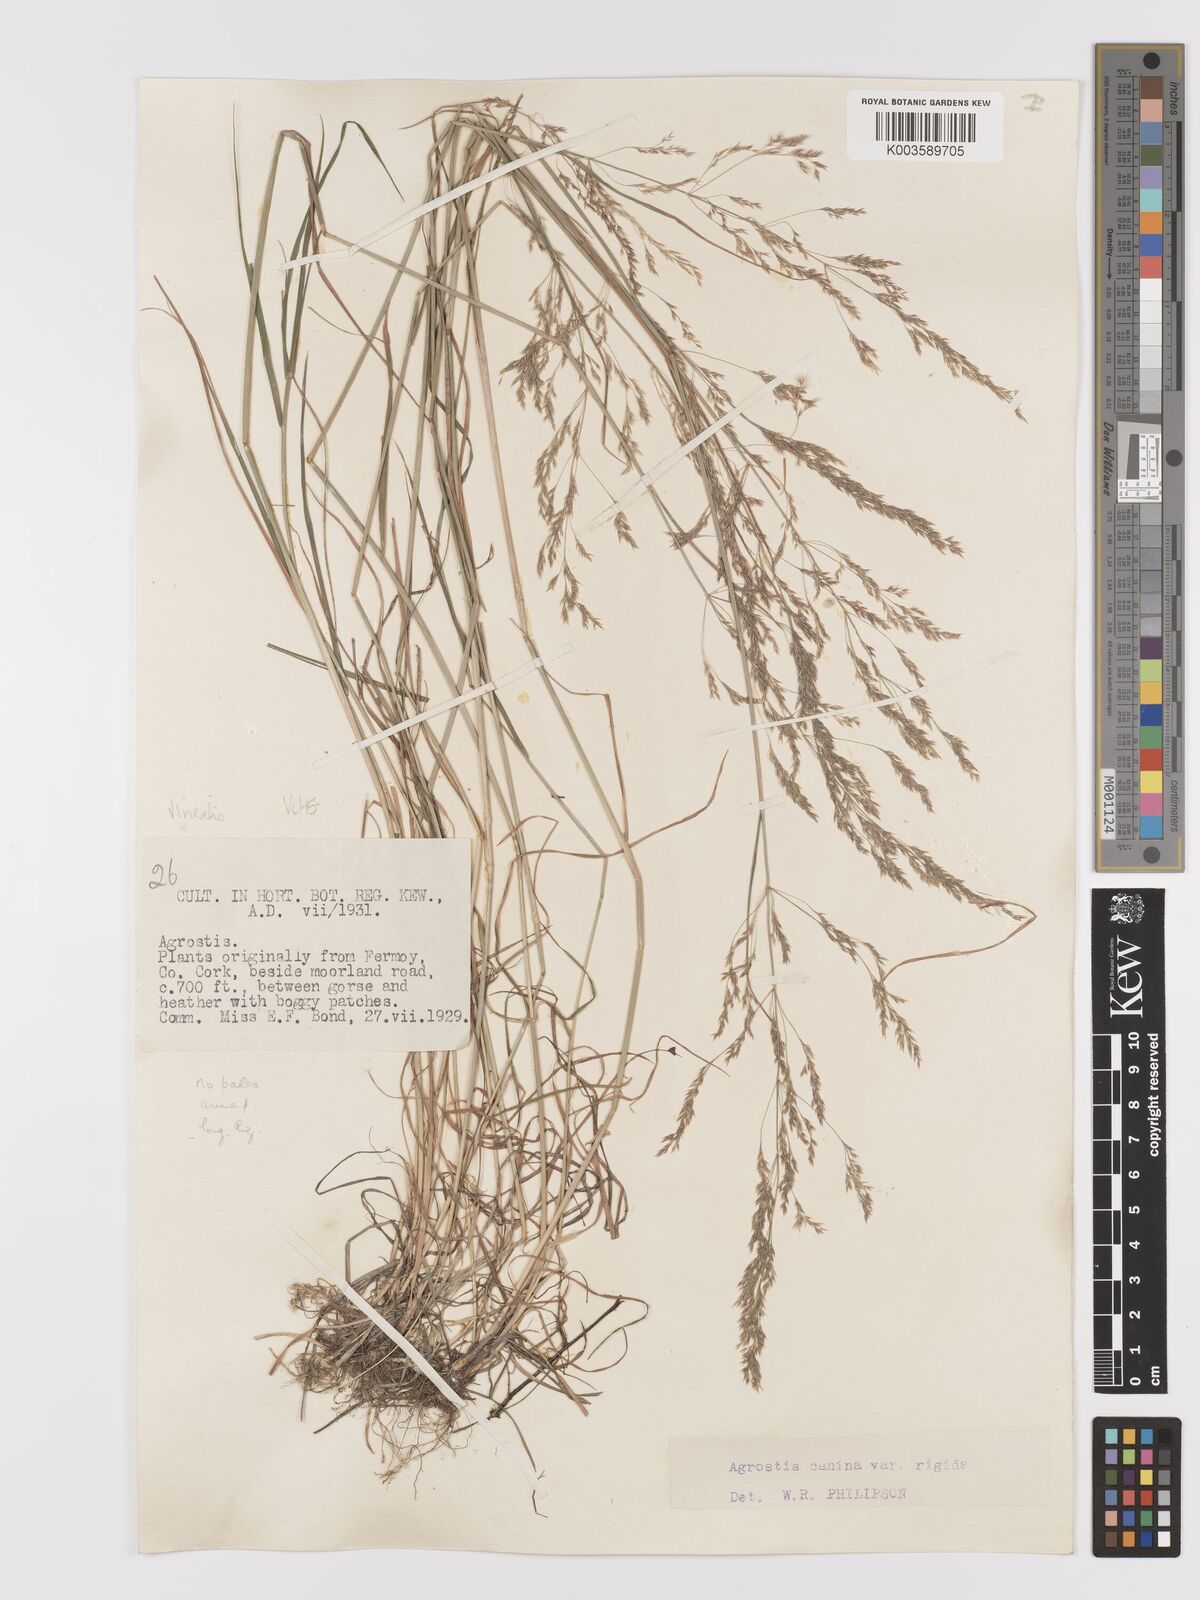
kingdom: Plantae
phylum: Tracheophyta
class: Liliopsida
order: Poales
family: Poaceae
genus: Agrostis
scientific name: Agrostis
